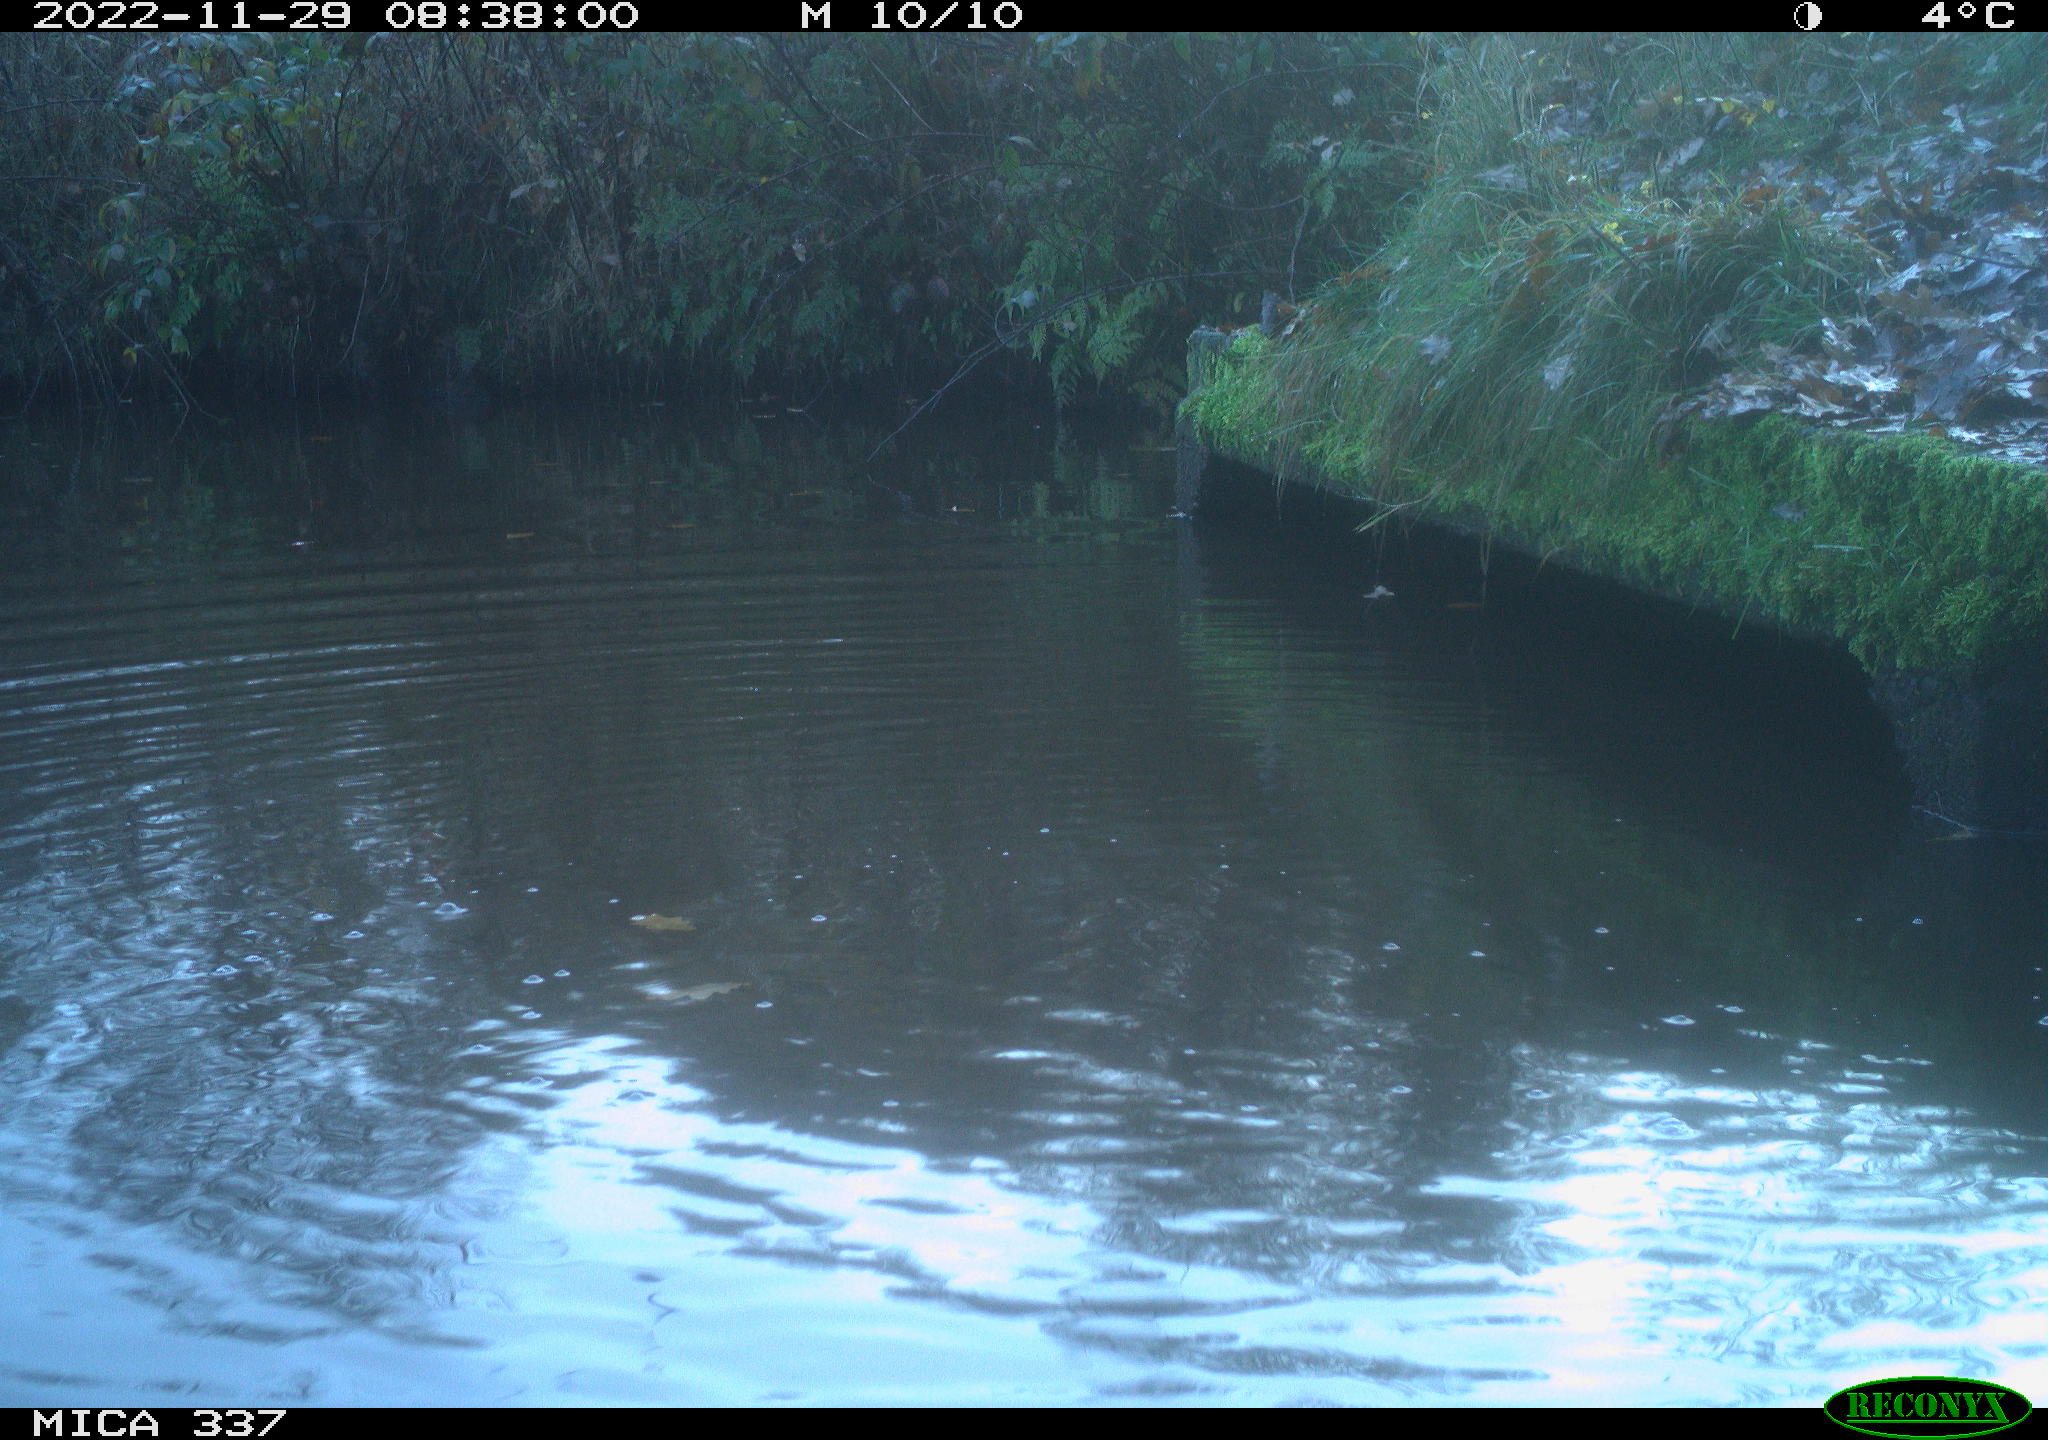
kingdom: Animalia
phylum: Chordata
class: Aves
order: Anseriformes
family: Anatidae
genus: Anas
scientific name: Anas
